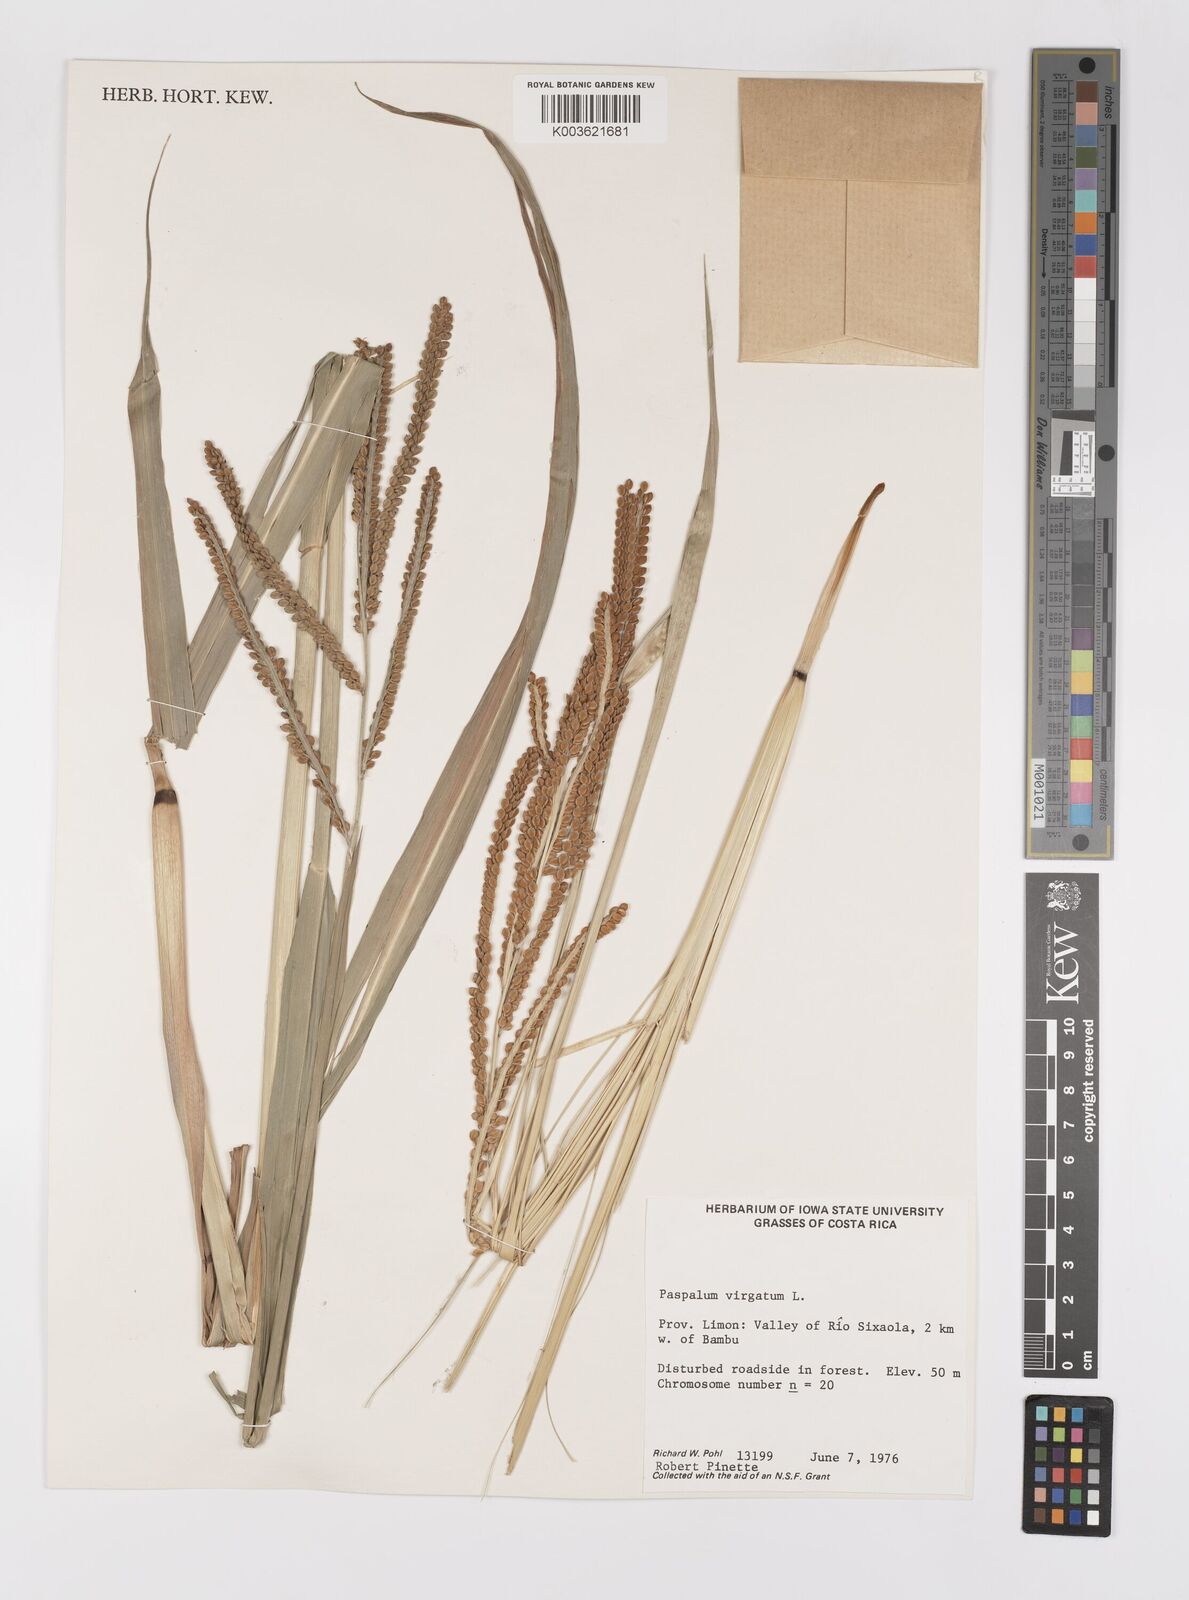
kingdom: Plantae
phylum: Tracheophyta
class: Liliopsida
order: Poales
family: Poaceae
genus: Paspalum
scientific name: Paspalum virgatum
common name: Talquezal
